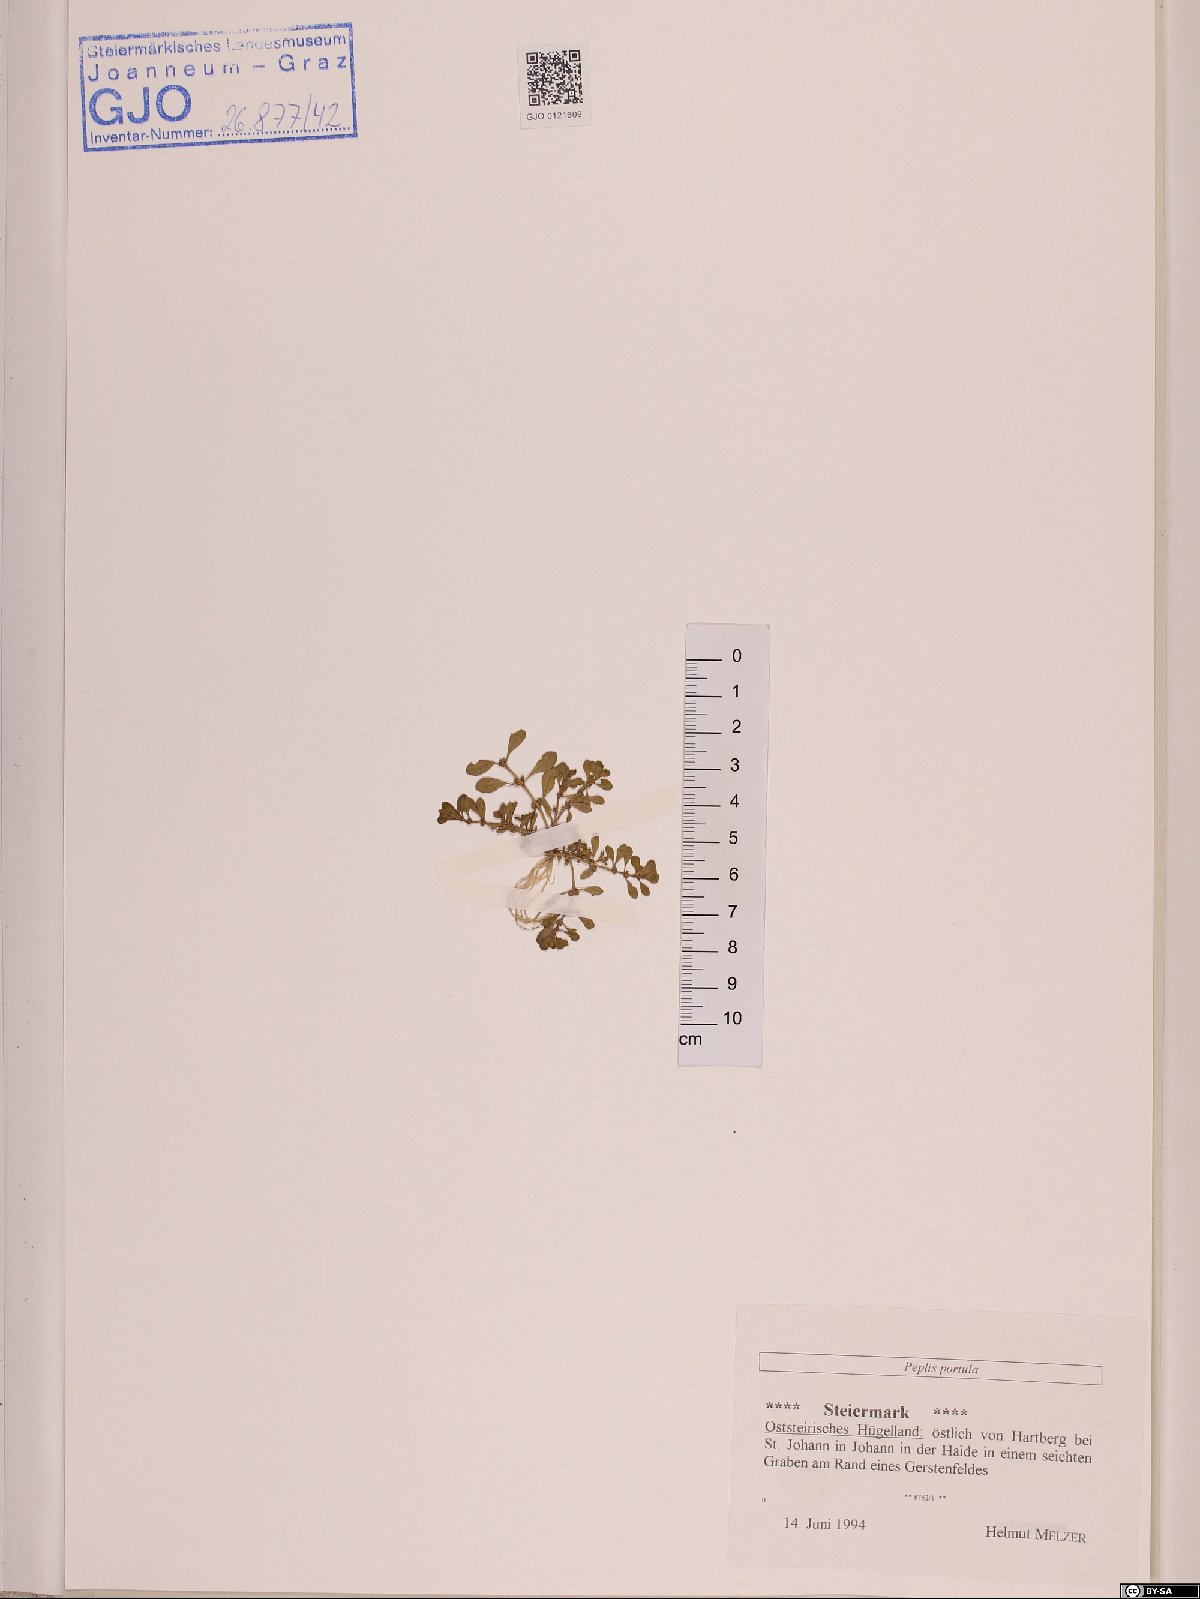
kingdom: Plantae
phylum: Tracheophyta
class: Magnoliopsida
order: Myrtales
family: Lythraceae
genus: Lythrum
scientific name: Lythrum portula
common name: Water purslane
